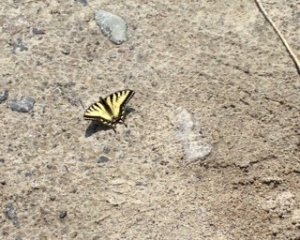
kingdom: Animalia
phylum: Arthropoda
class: Insecta
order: Lepidoptera
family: Papilionidae
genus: Pterourus
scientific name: Pterourus canadensis
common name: Canadian Tiger Swallowtail
